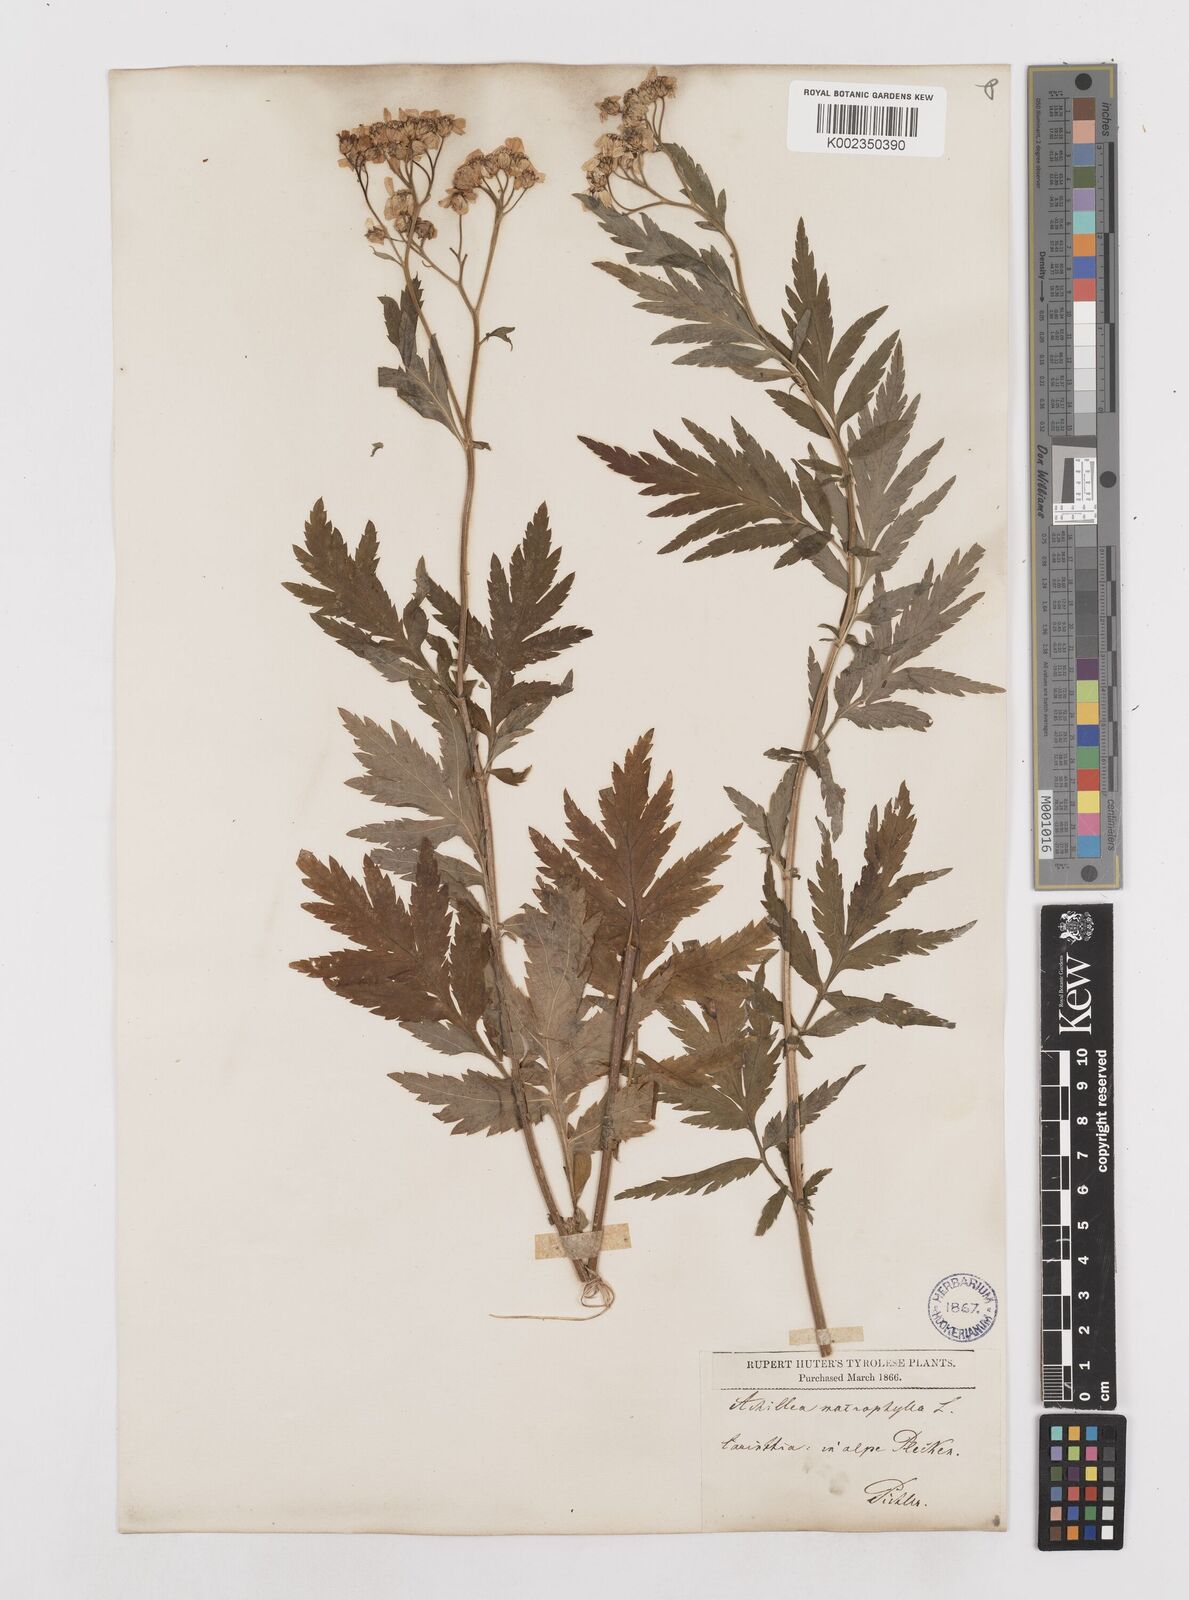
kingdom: Plantae
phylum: Tracheophyta
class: Magnoliopsida
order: Asterales
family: Asteraceae
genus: Achillea
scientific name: Achillea macrophylla
